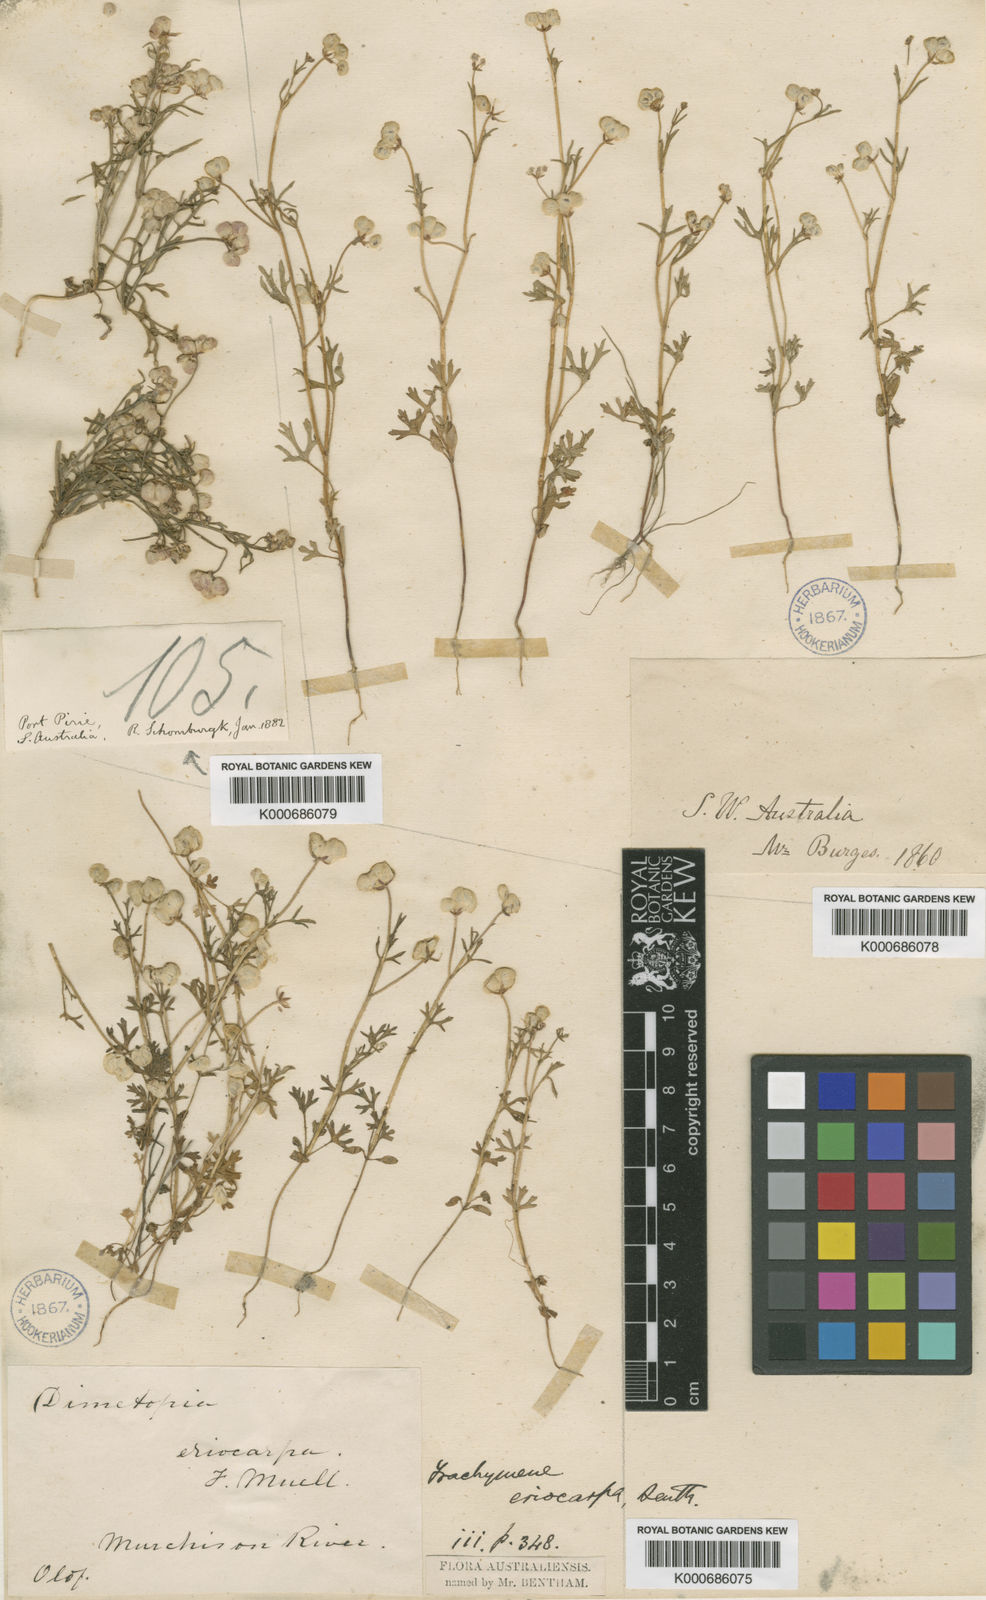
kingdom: Plantae
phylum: Tracheophyta
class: Magnoliopsida
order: Apiales
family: Araliaceae
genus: Trachymene
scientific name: Trachymene ornata
